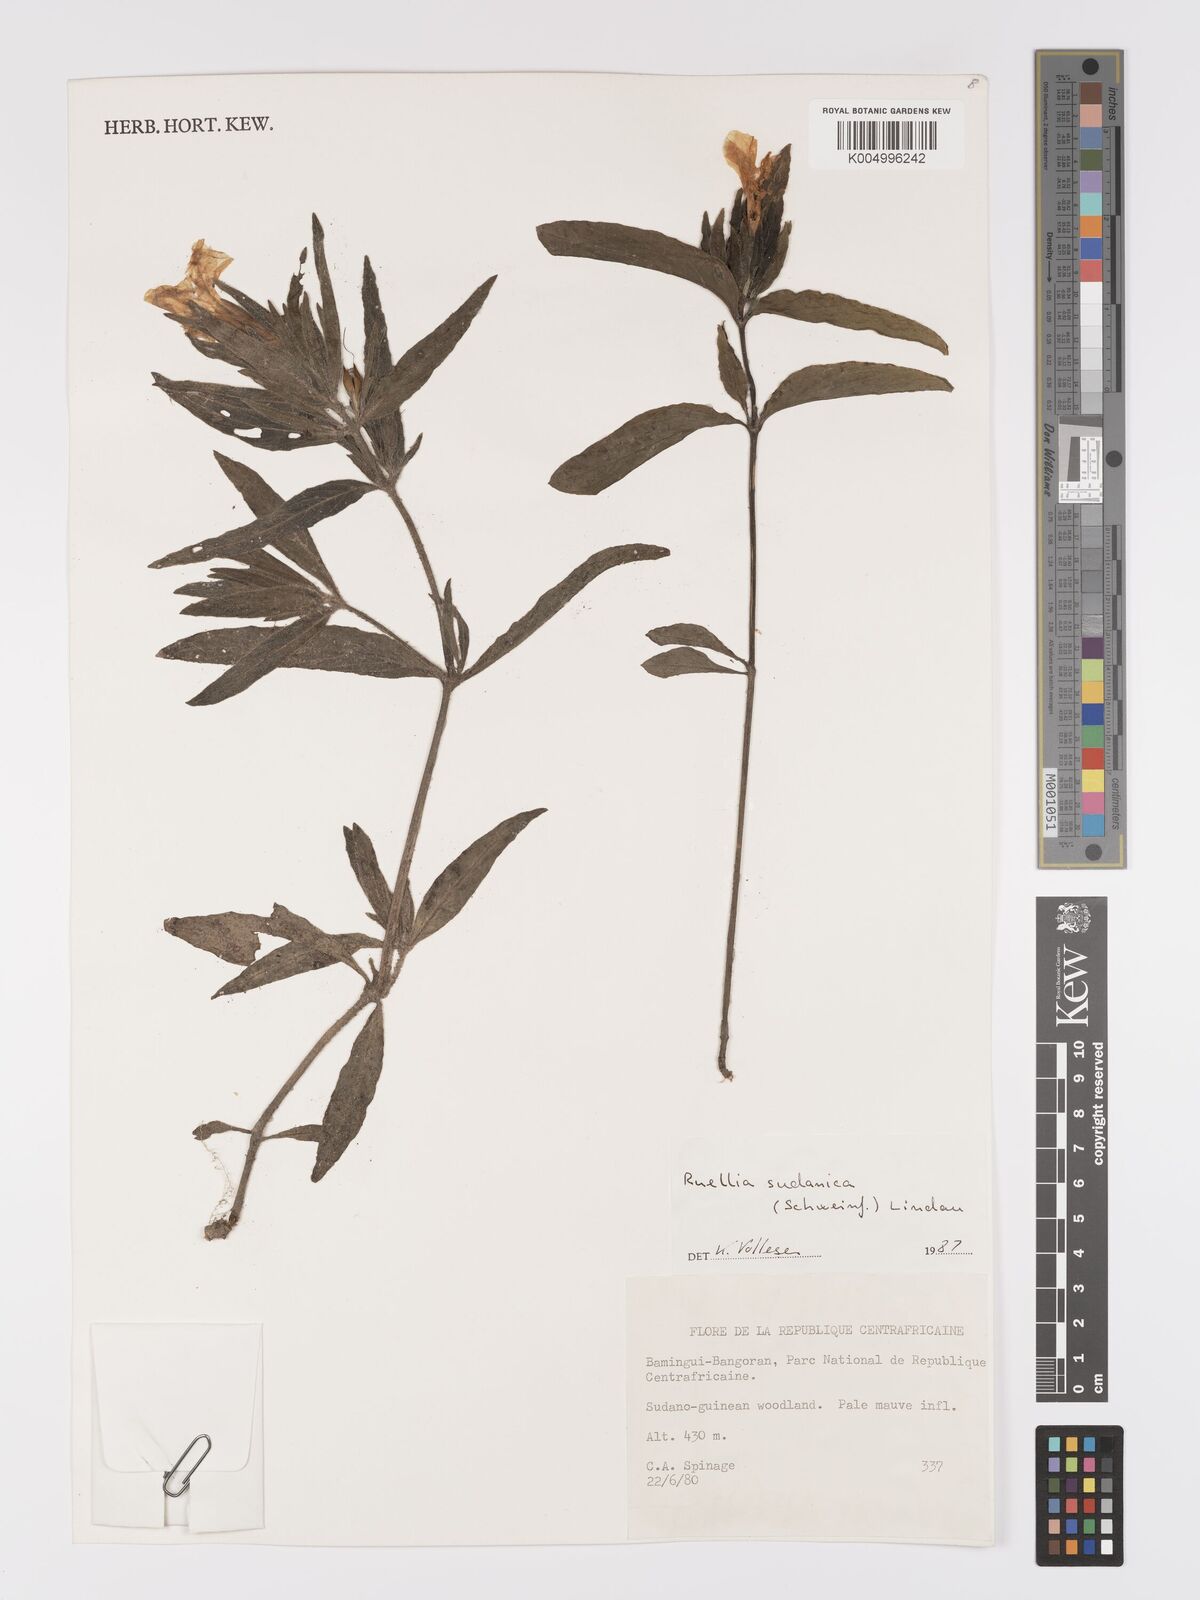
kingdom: Plantae
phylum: Tracheophyta
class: Magnoliopsida
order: Lamiales
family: Acanthaceae
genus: Ruellia
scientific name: Ruellia patula
